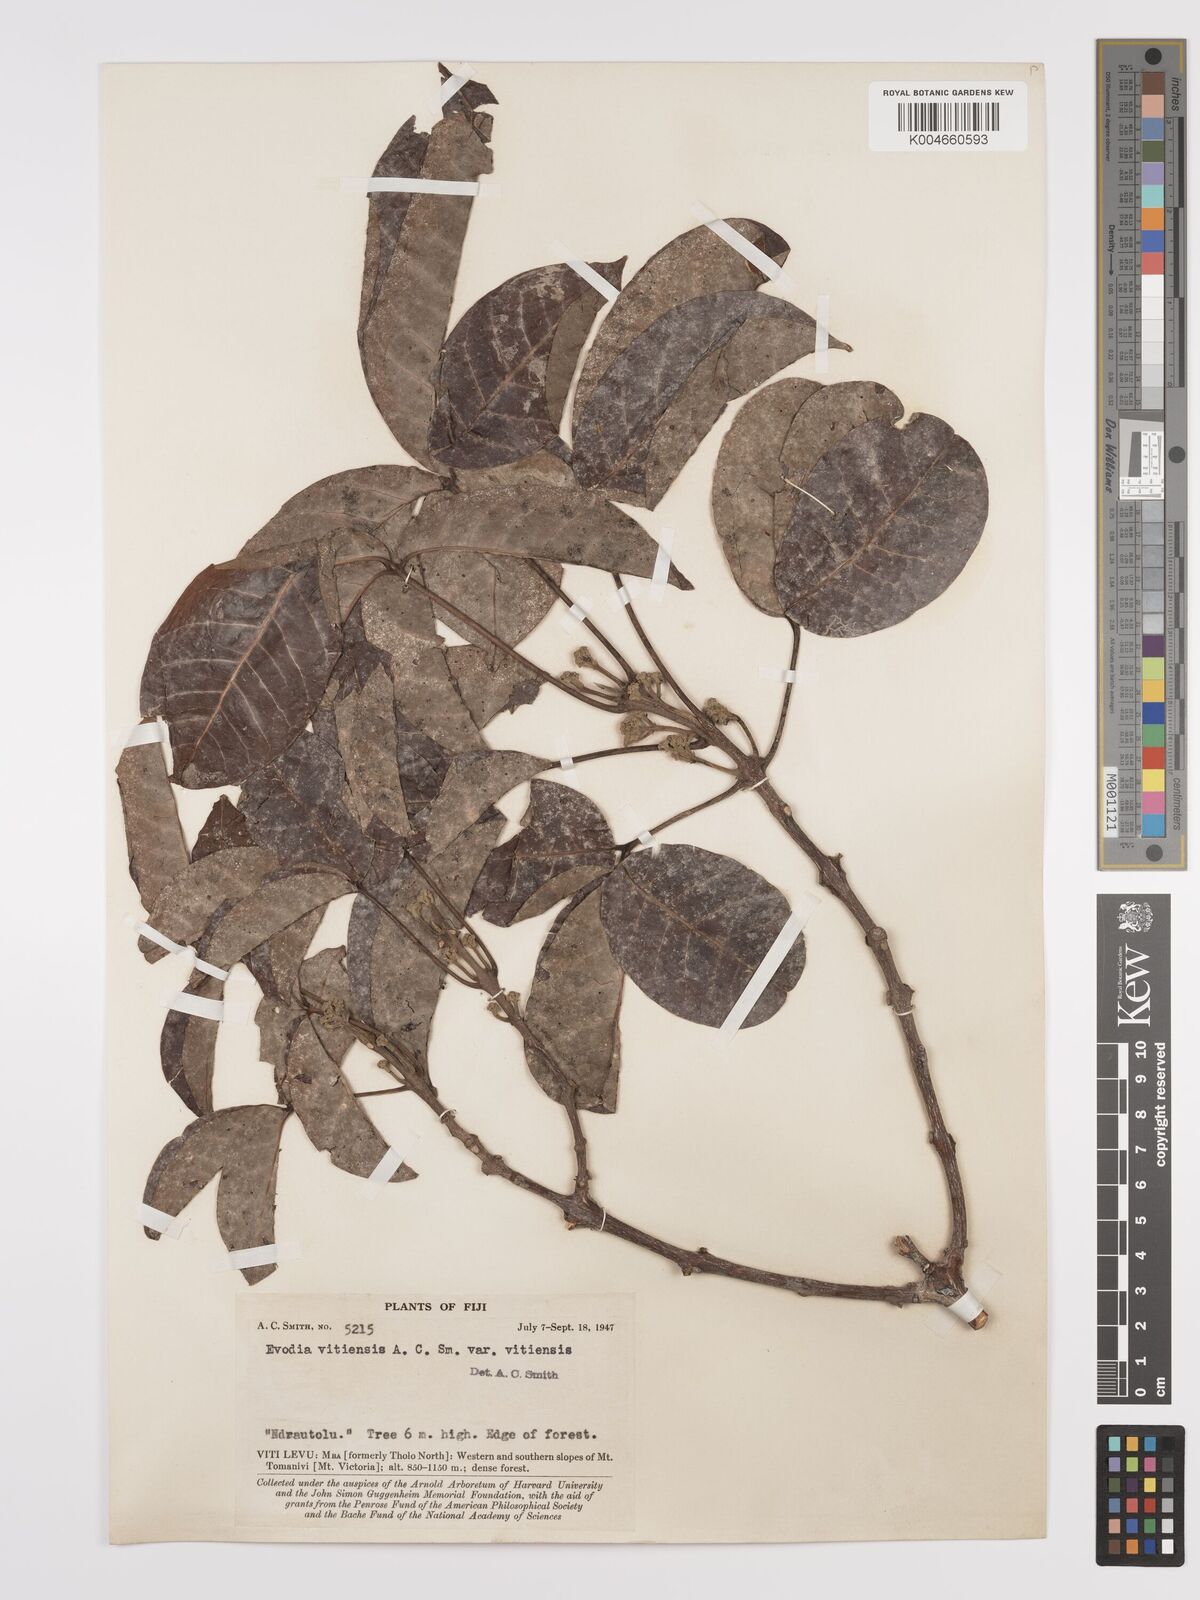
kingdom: Plantae
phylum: Tracheophyta
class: Magnoliopsida
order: Sapindales
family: Rutaceae
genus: Melicope
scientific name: Melicope cucullata
